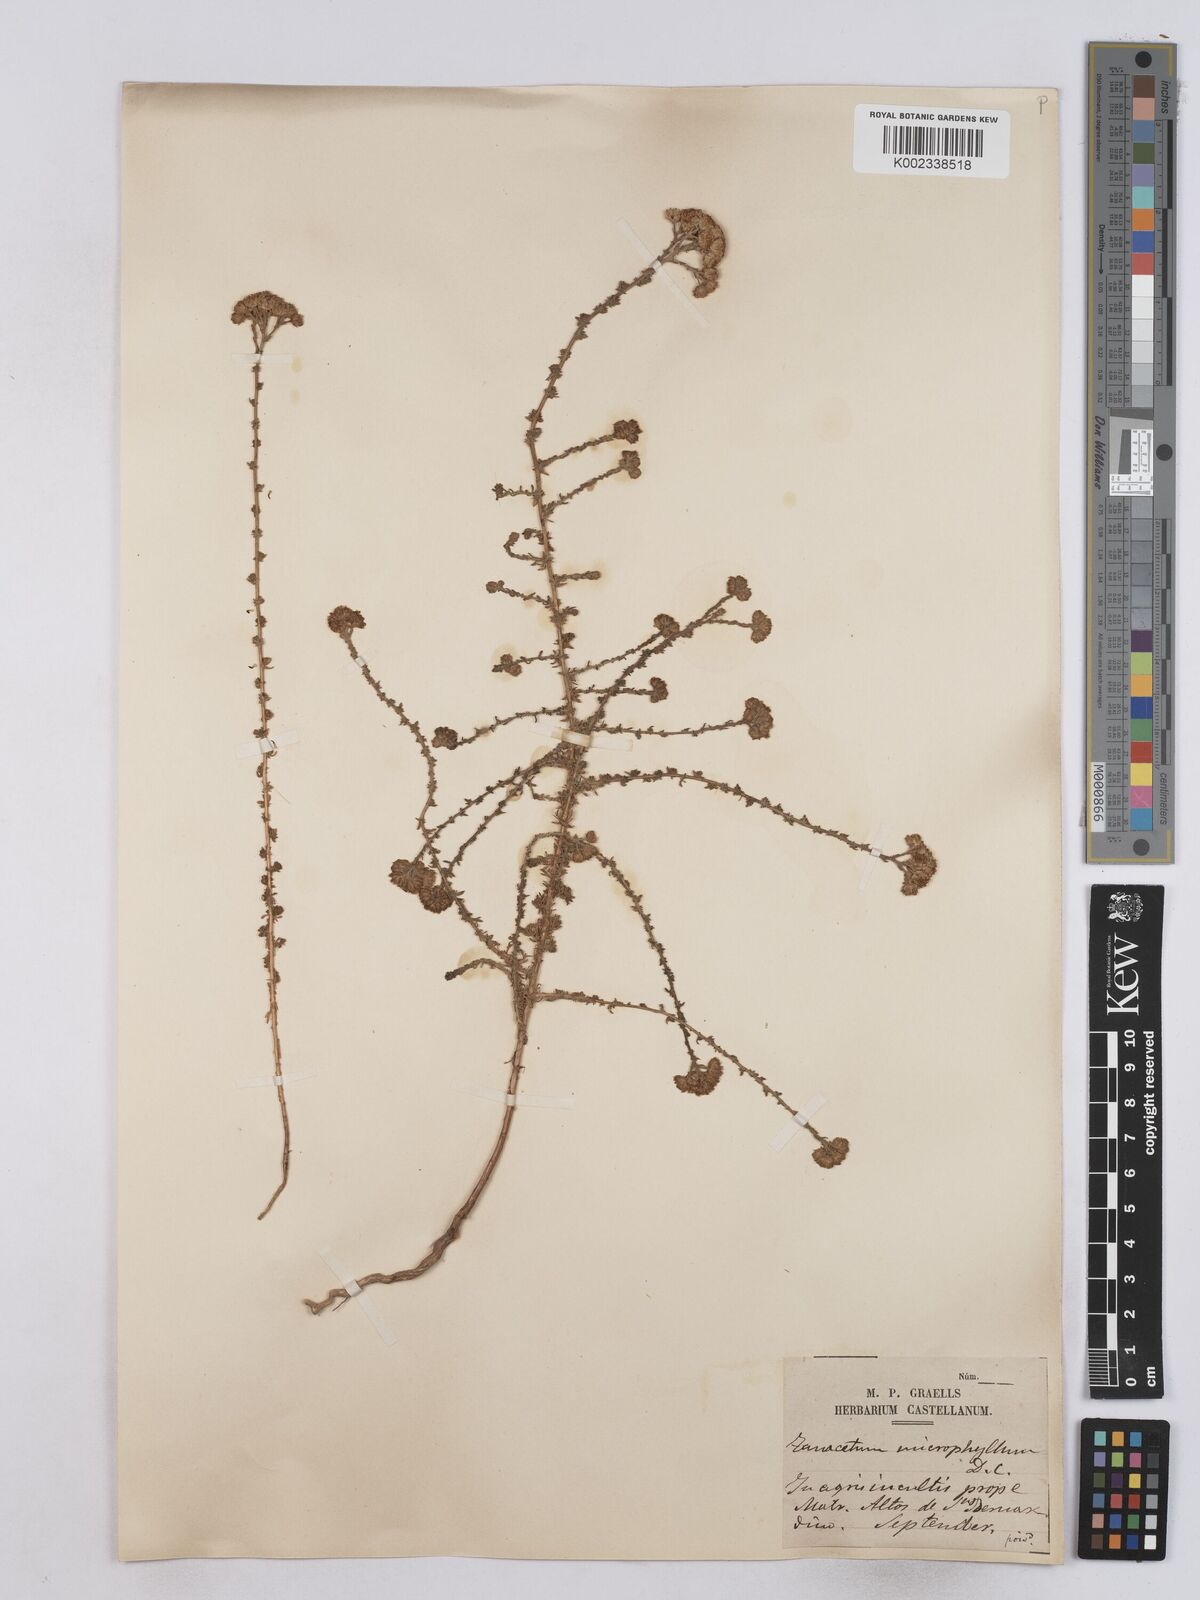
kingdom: Plantae
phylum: Tracheophyta
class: Magnoliopsida
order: Asterales
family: Asteraceae
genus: Vogtia
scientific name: Vogtia microphylla
